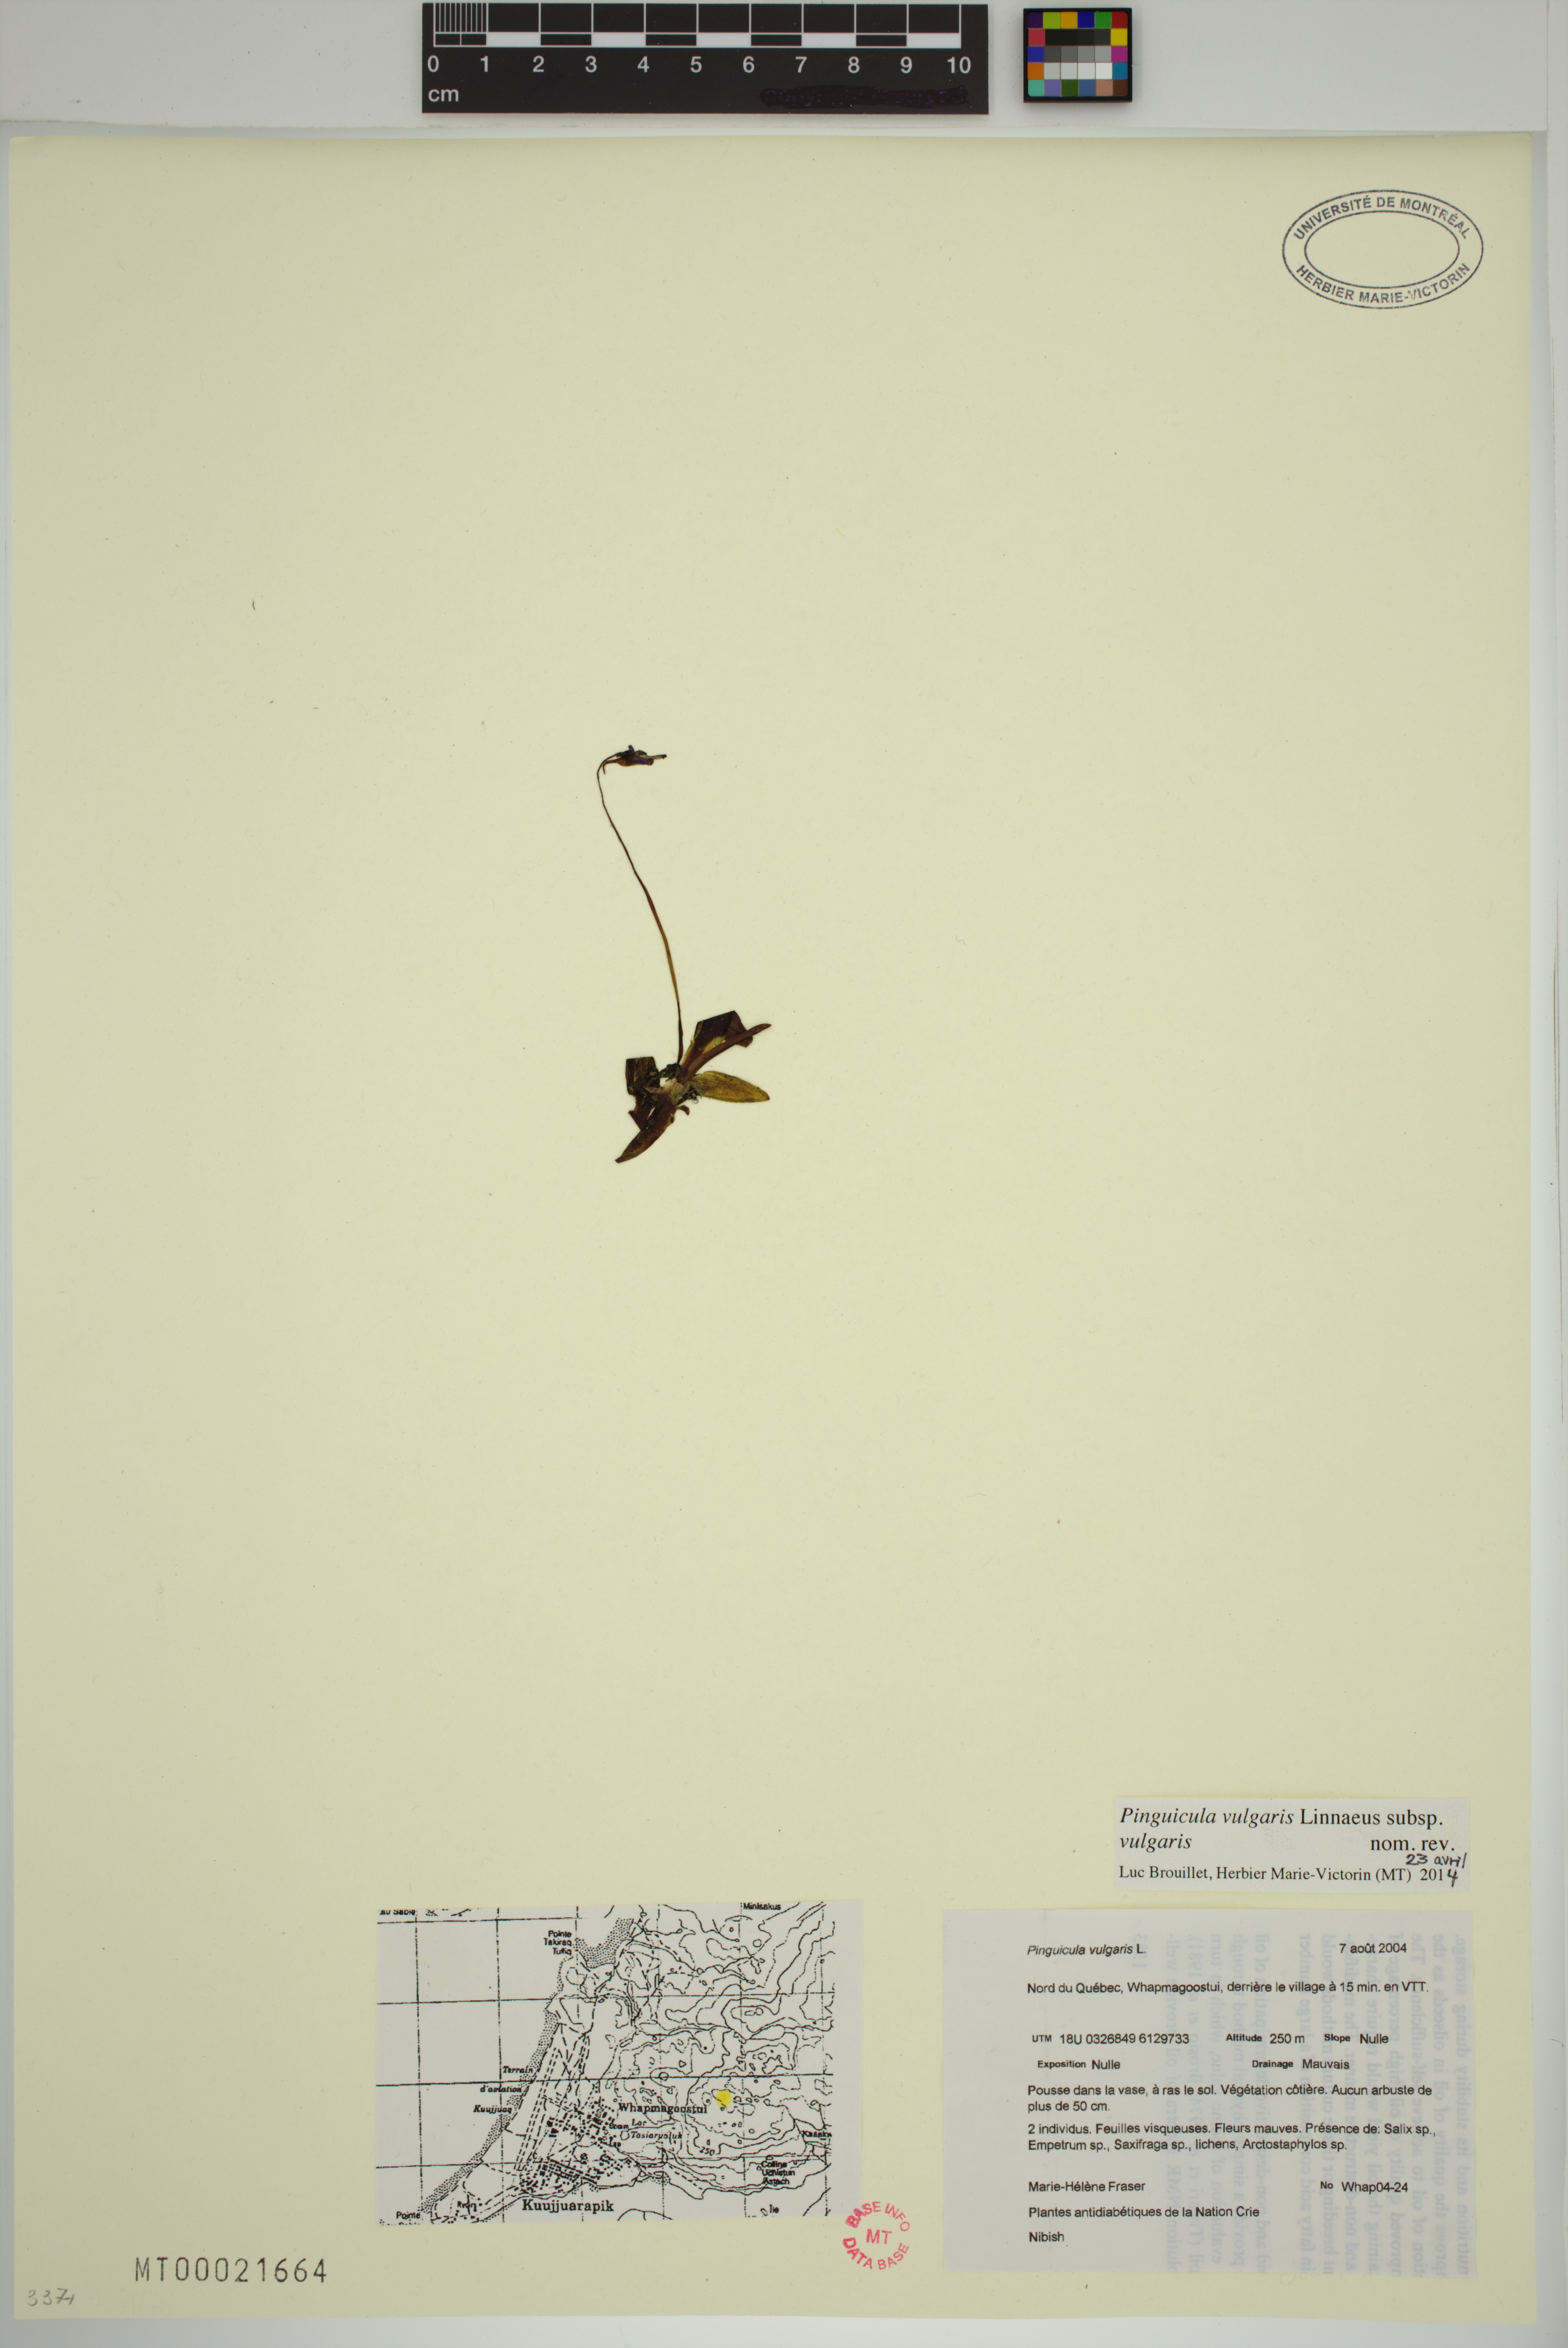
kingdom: Plantae
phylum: Tracheophyta
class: Magnoliopsida
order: Lamiales
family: Lentibulariaceae
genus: Pinguicula
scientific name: Pinguicula vulgaris
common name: Common butterwort
